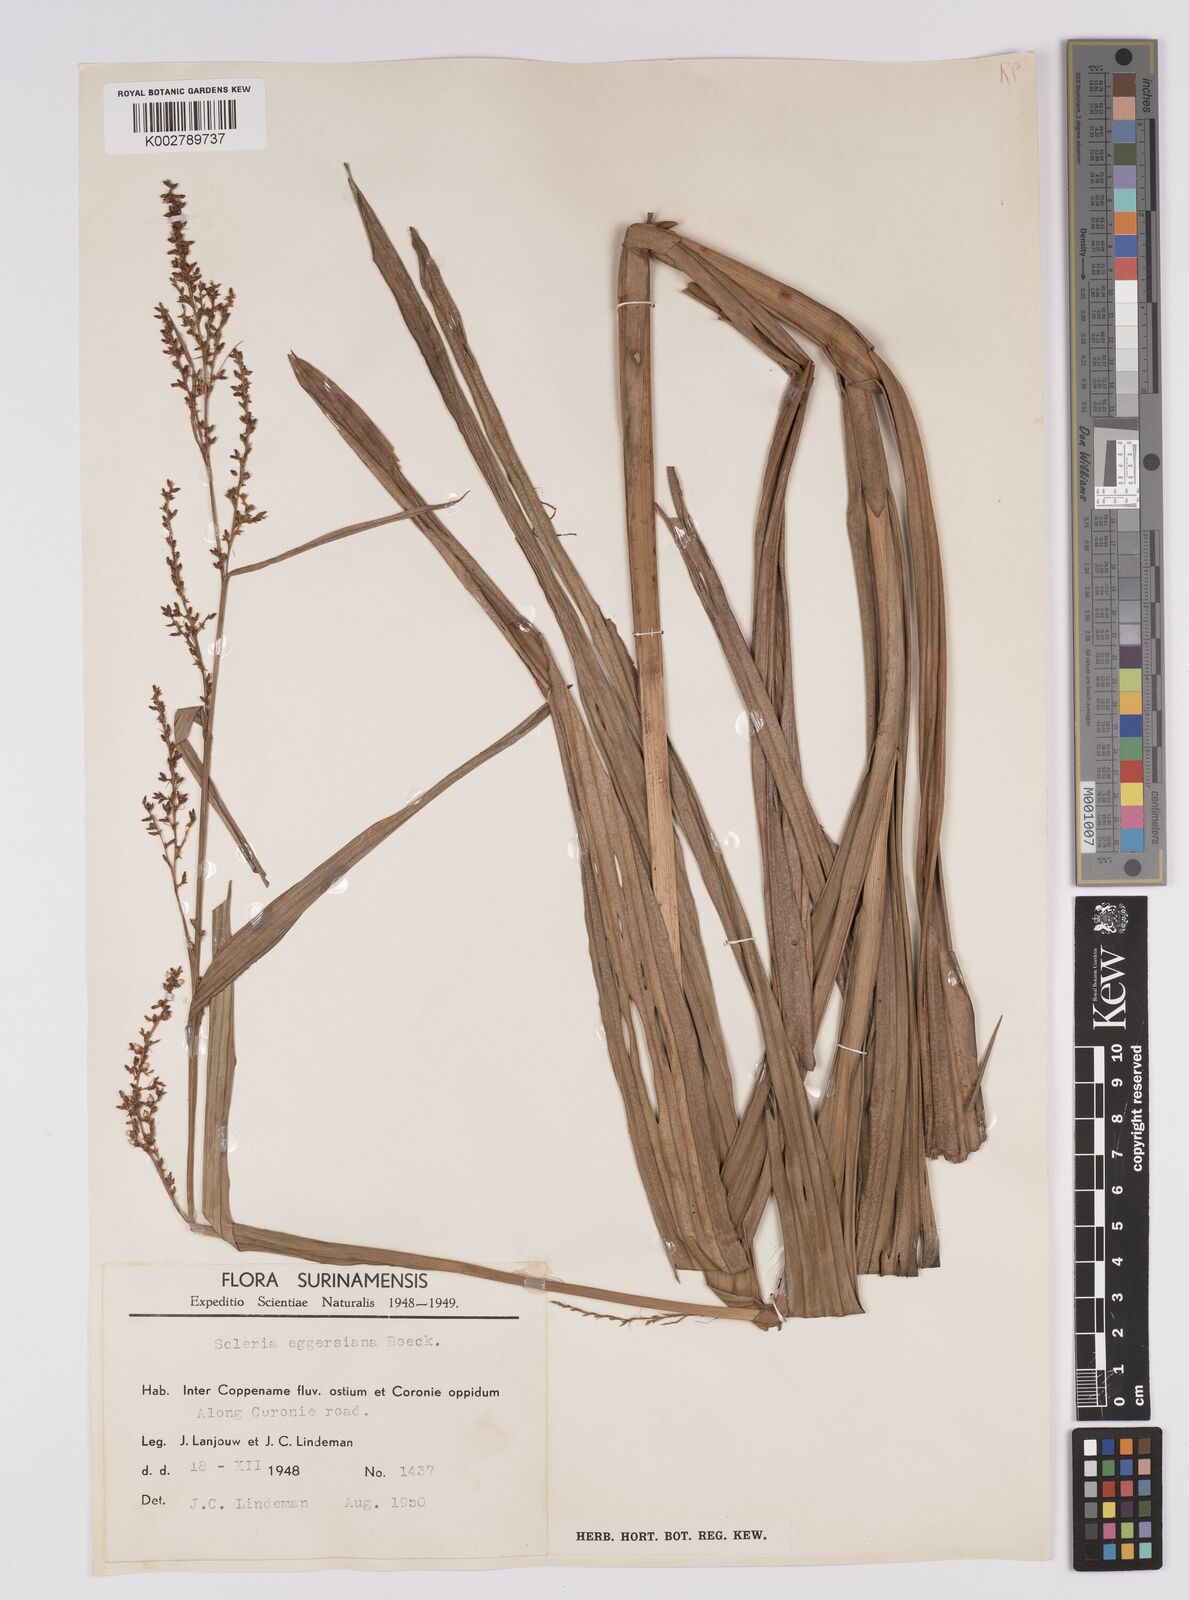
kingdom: Plantae
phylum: Tracheophyta
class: Liliopsida
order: Poales
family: Cyperaceae
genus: Scleria
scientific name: Scleria eggersiana
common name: Eggers' nutrush
